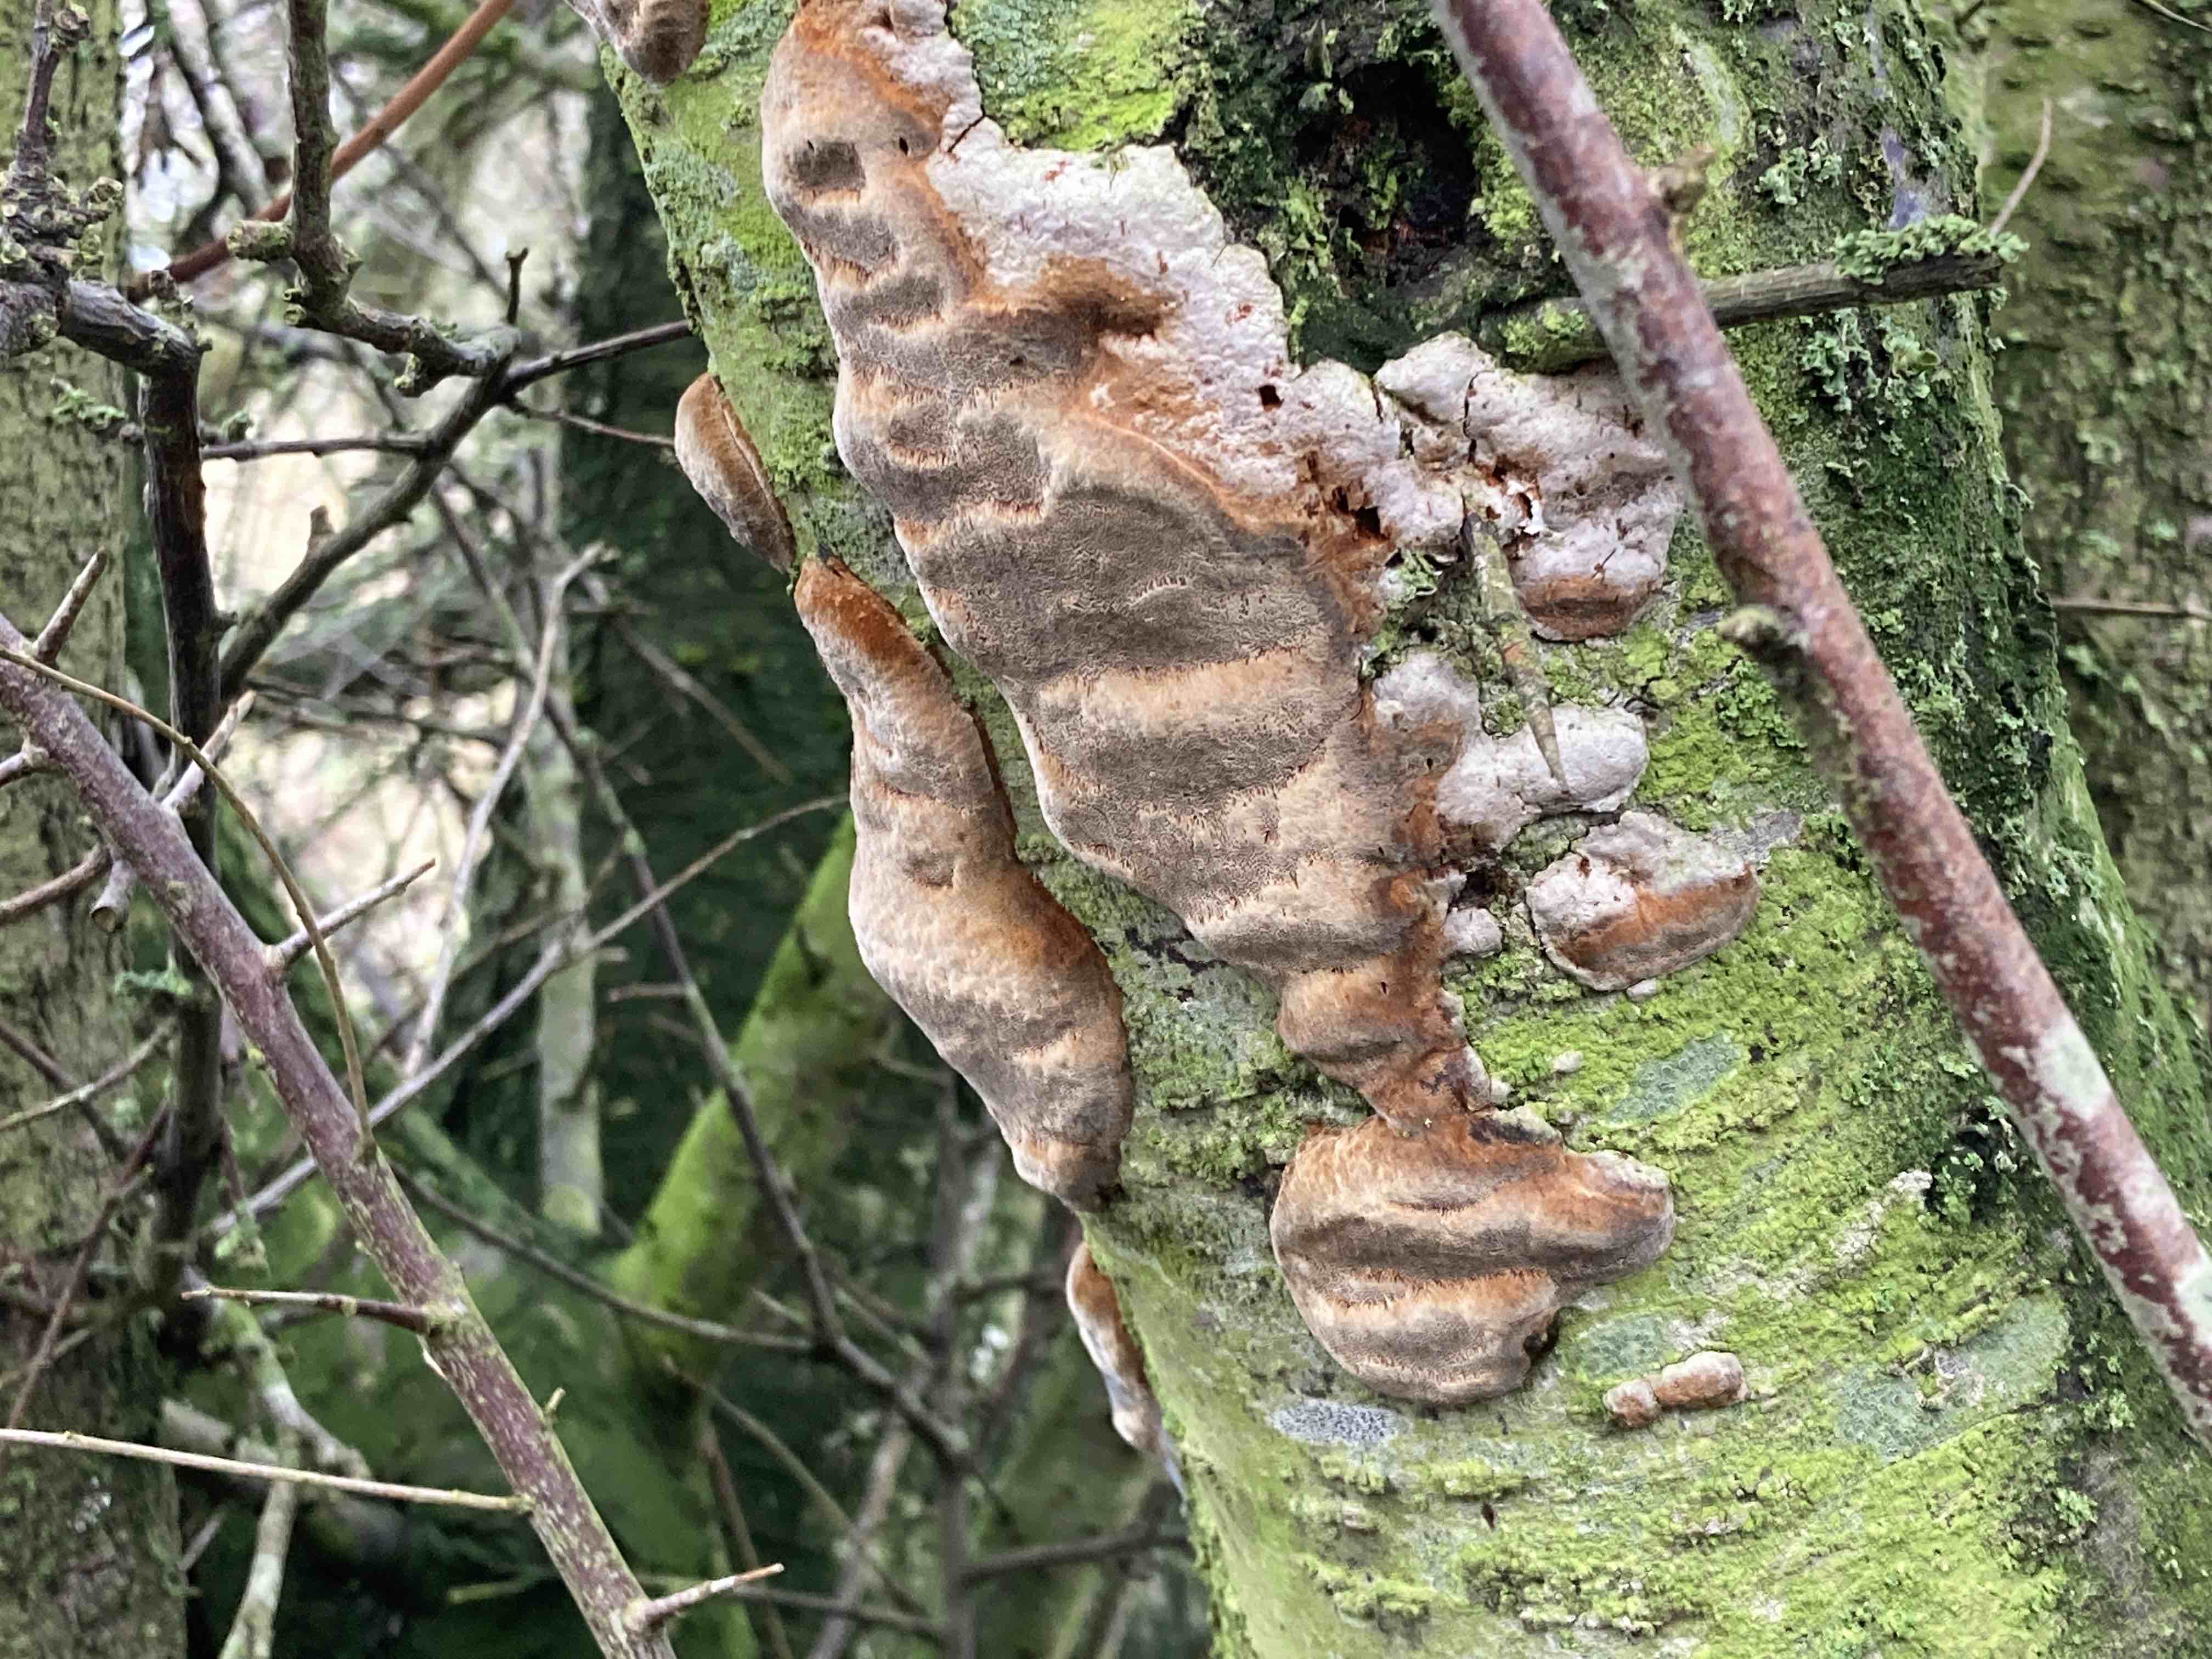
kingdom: Fungi
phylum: Basidiomycota
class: Agaricomycetes
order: Hymenochaetales
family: Hymenochaetaceae
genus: Phellinus
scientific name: Phellinus pomaceus
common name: blomme-ildporesvamp
